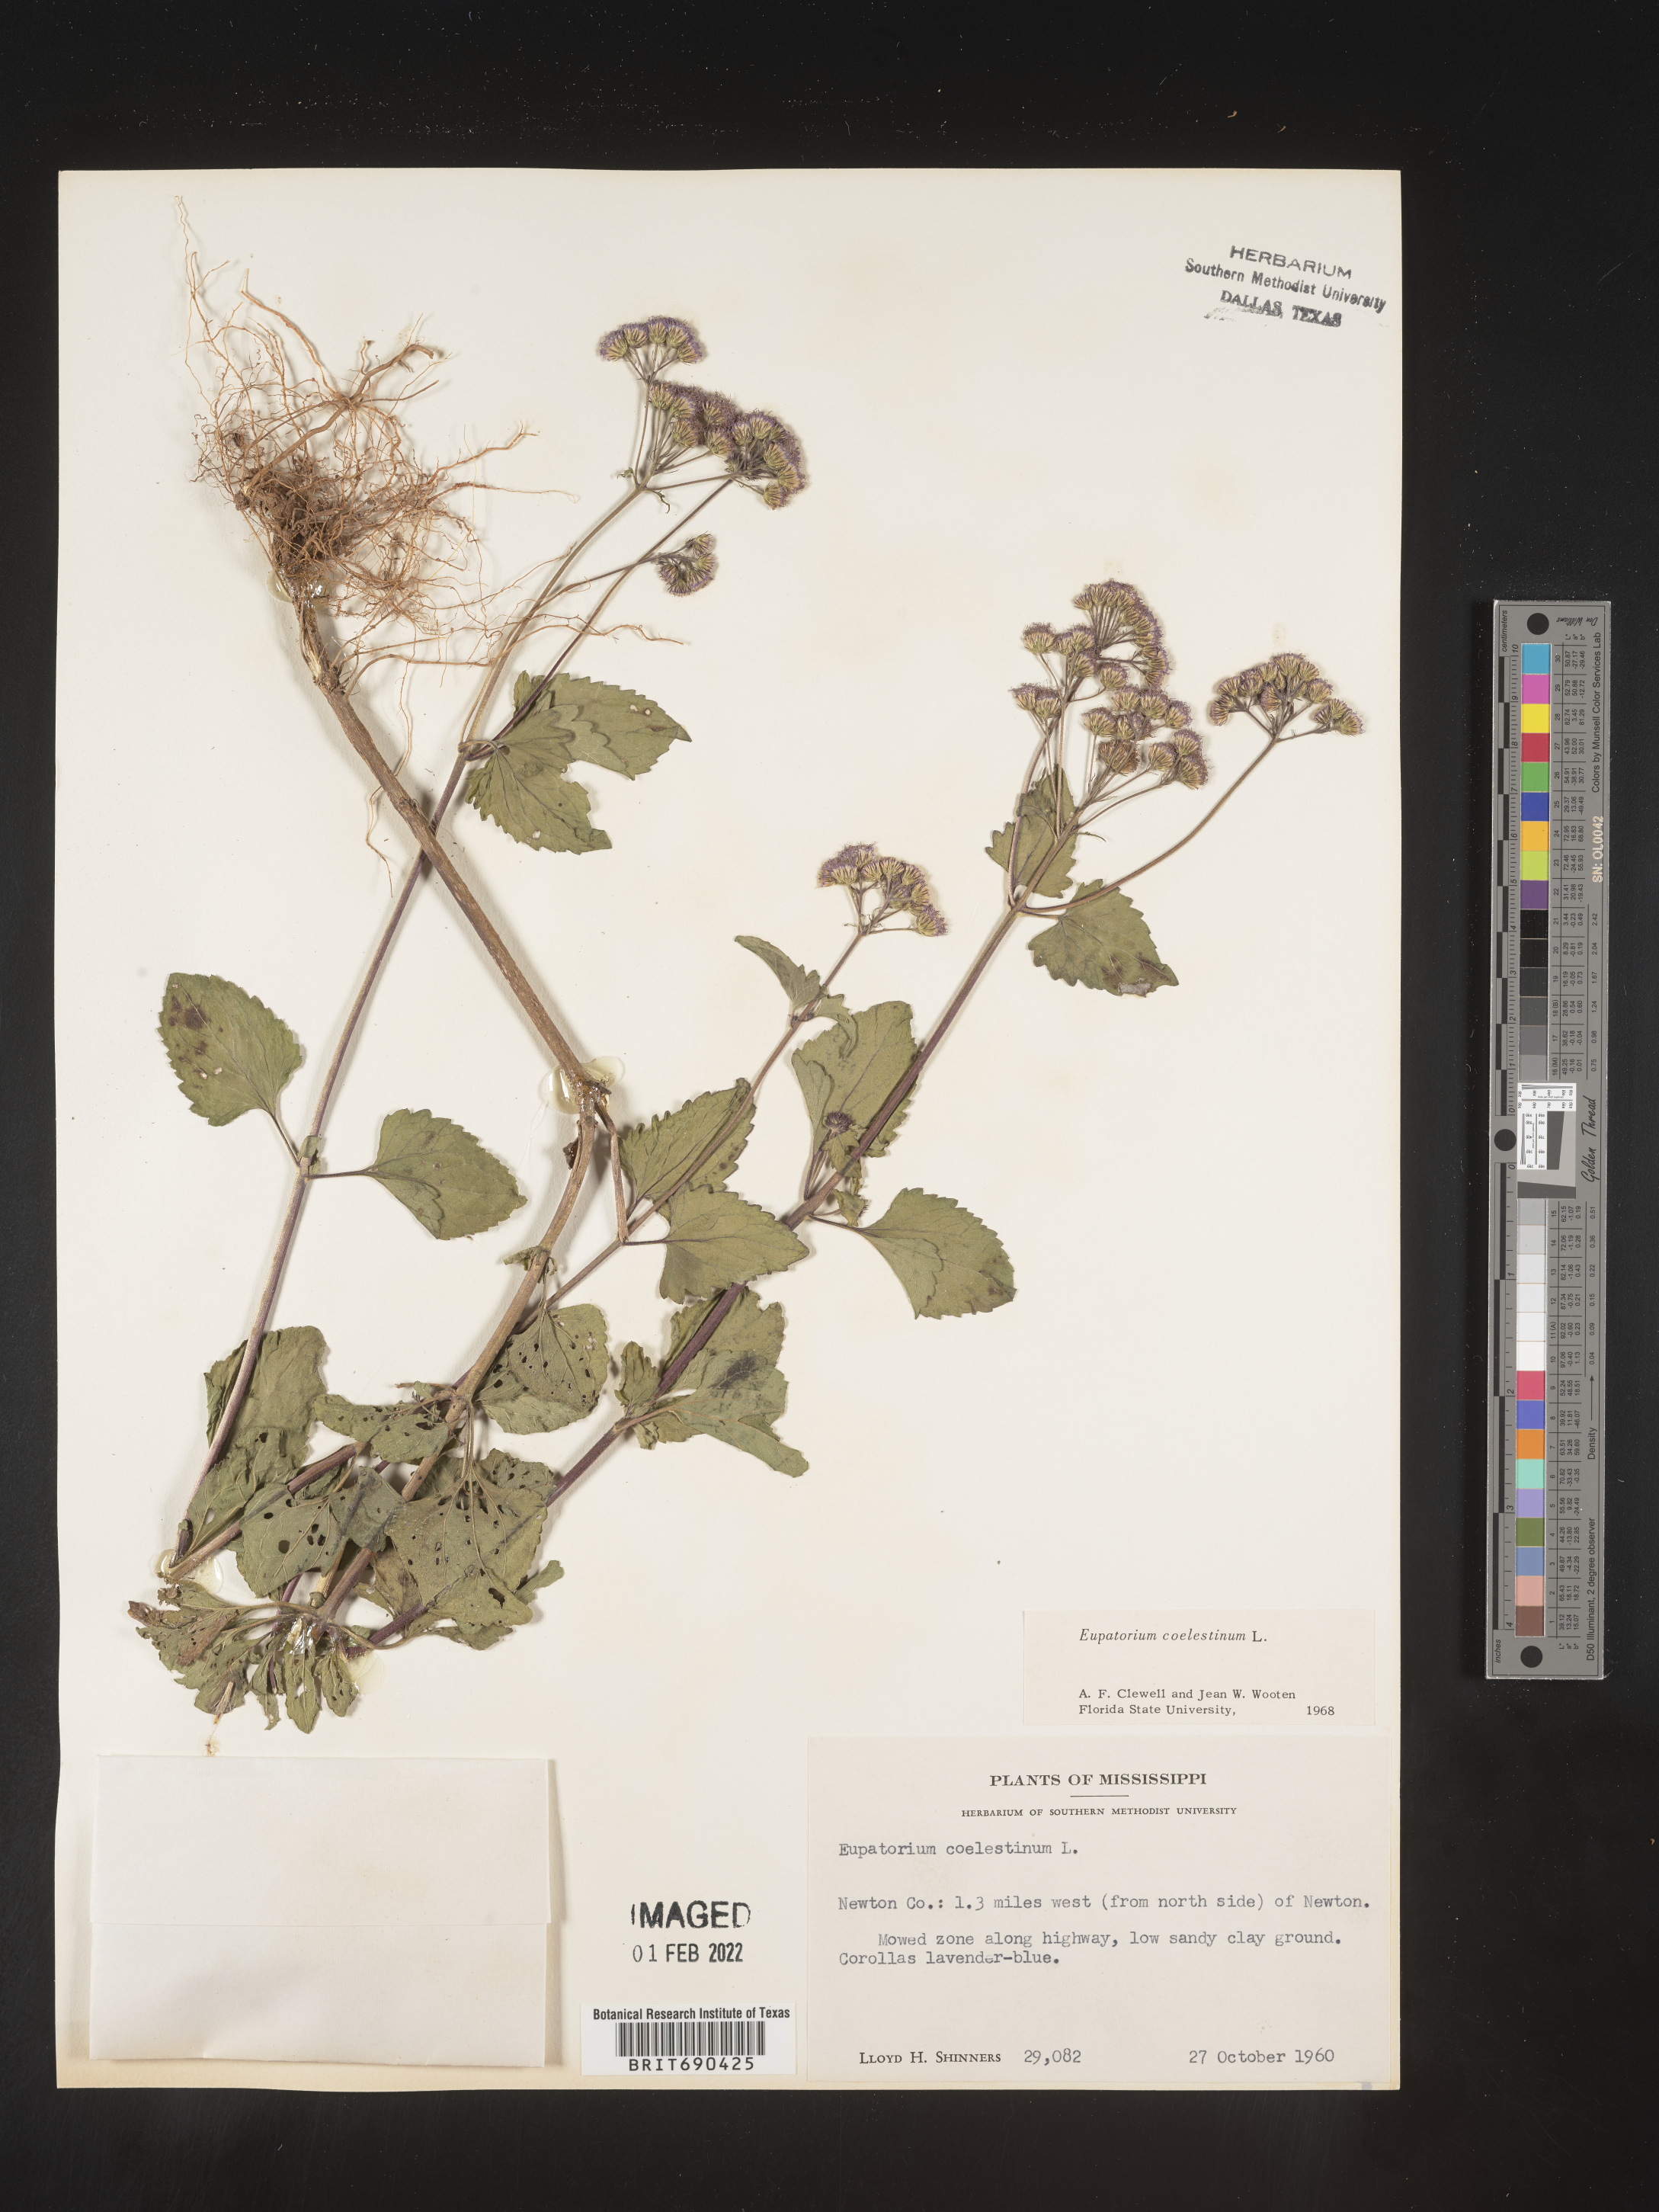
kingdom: Plantae
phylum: Tracheophyta
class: Magnoliopsida
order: Asterales
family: Asteraceae
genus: Conoclinium
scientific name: Conoclinium coelestinum
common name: Blue mistflower
